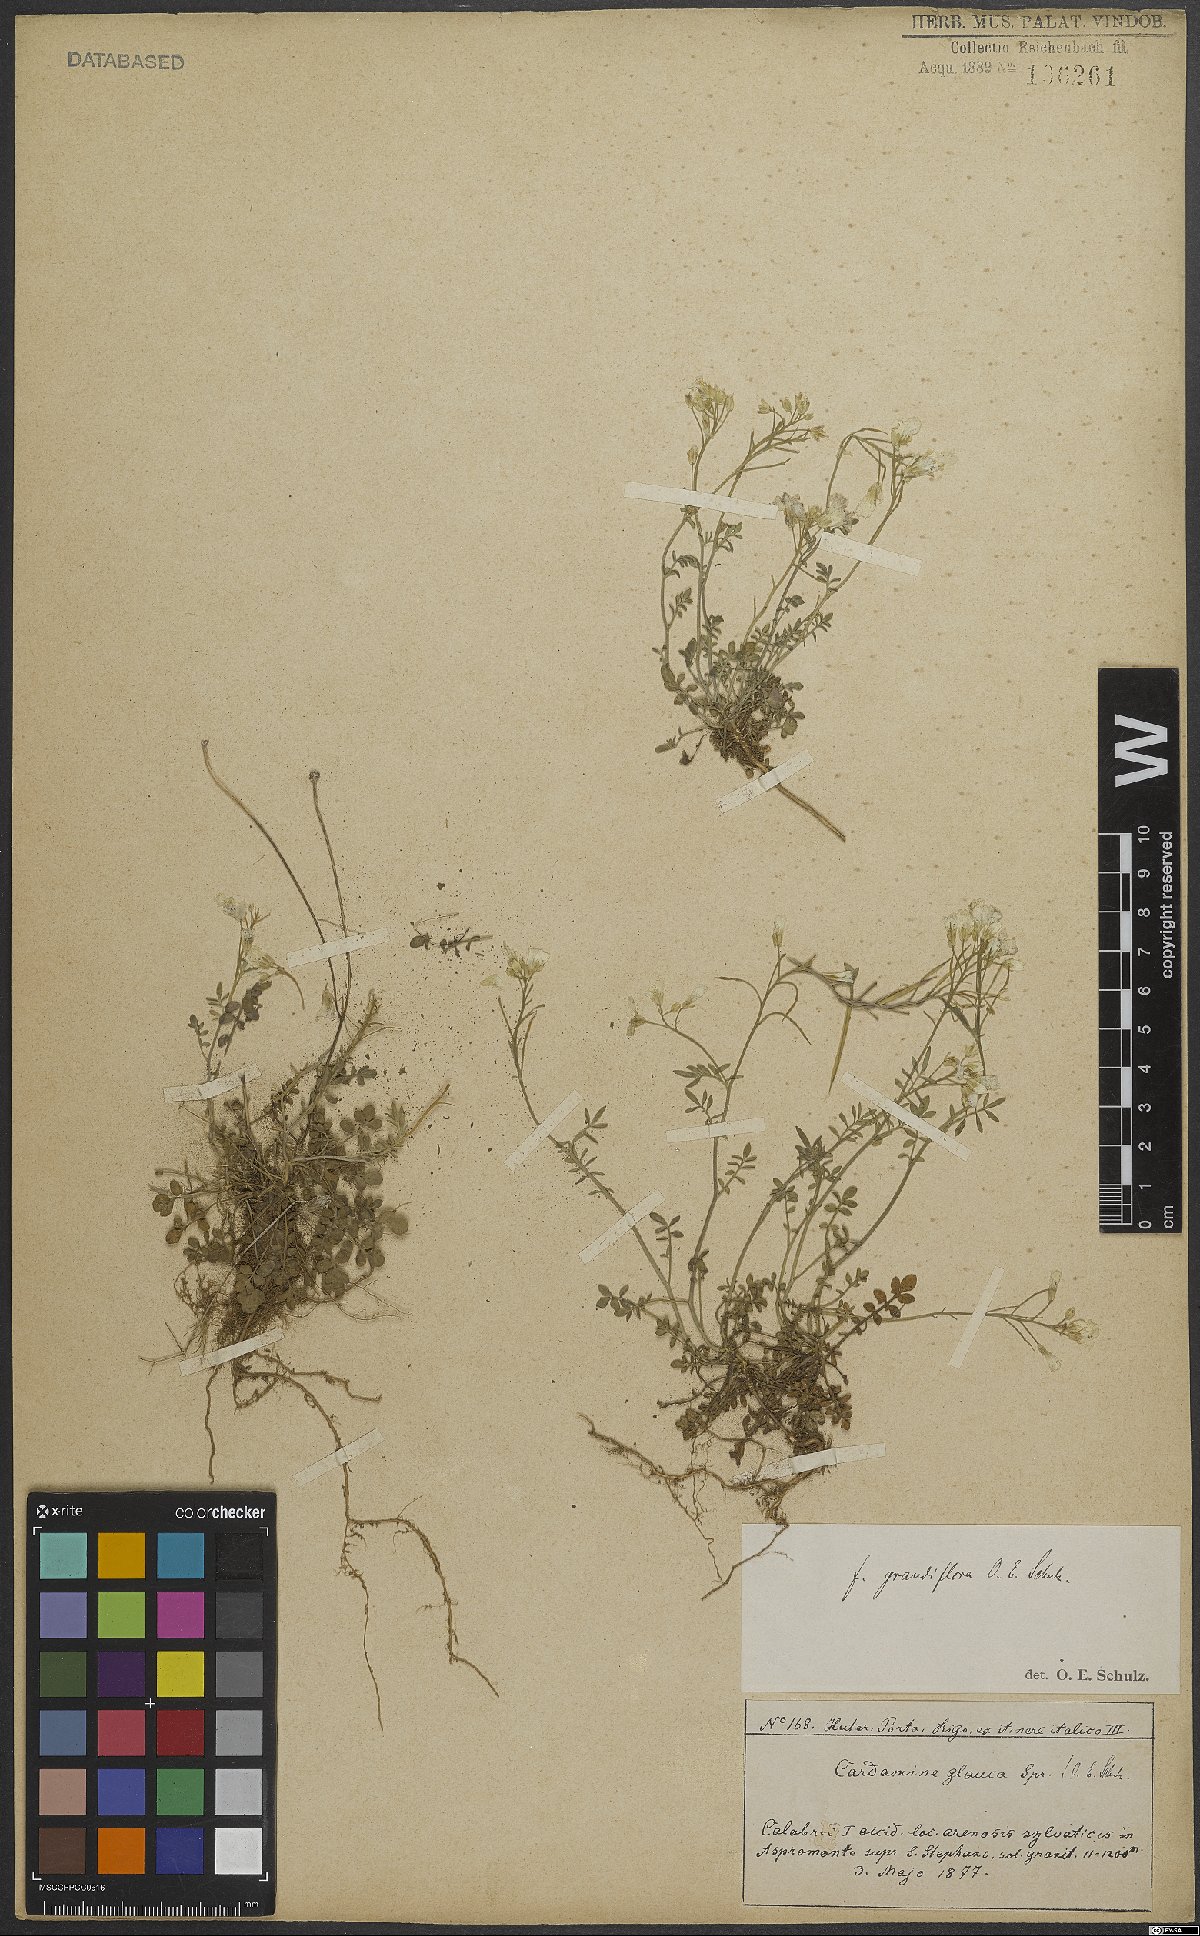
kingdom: Plantae
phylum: Tracheophyta
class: Magnoliopsida
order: Brassicales
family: Brassicaceae
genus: Cardamine
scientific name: Cardamine glauca
